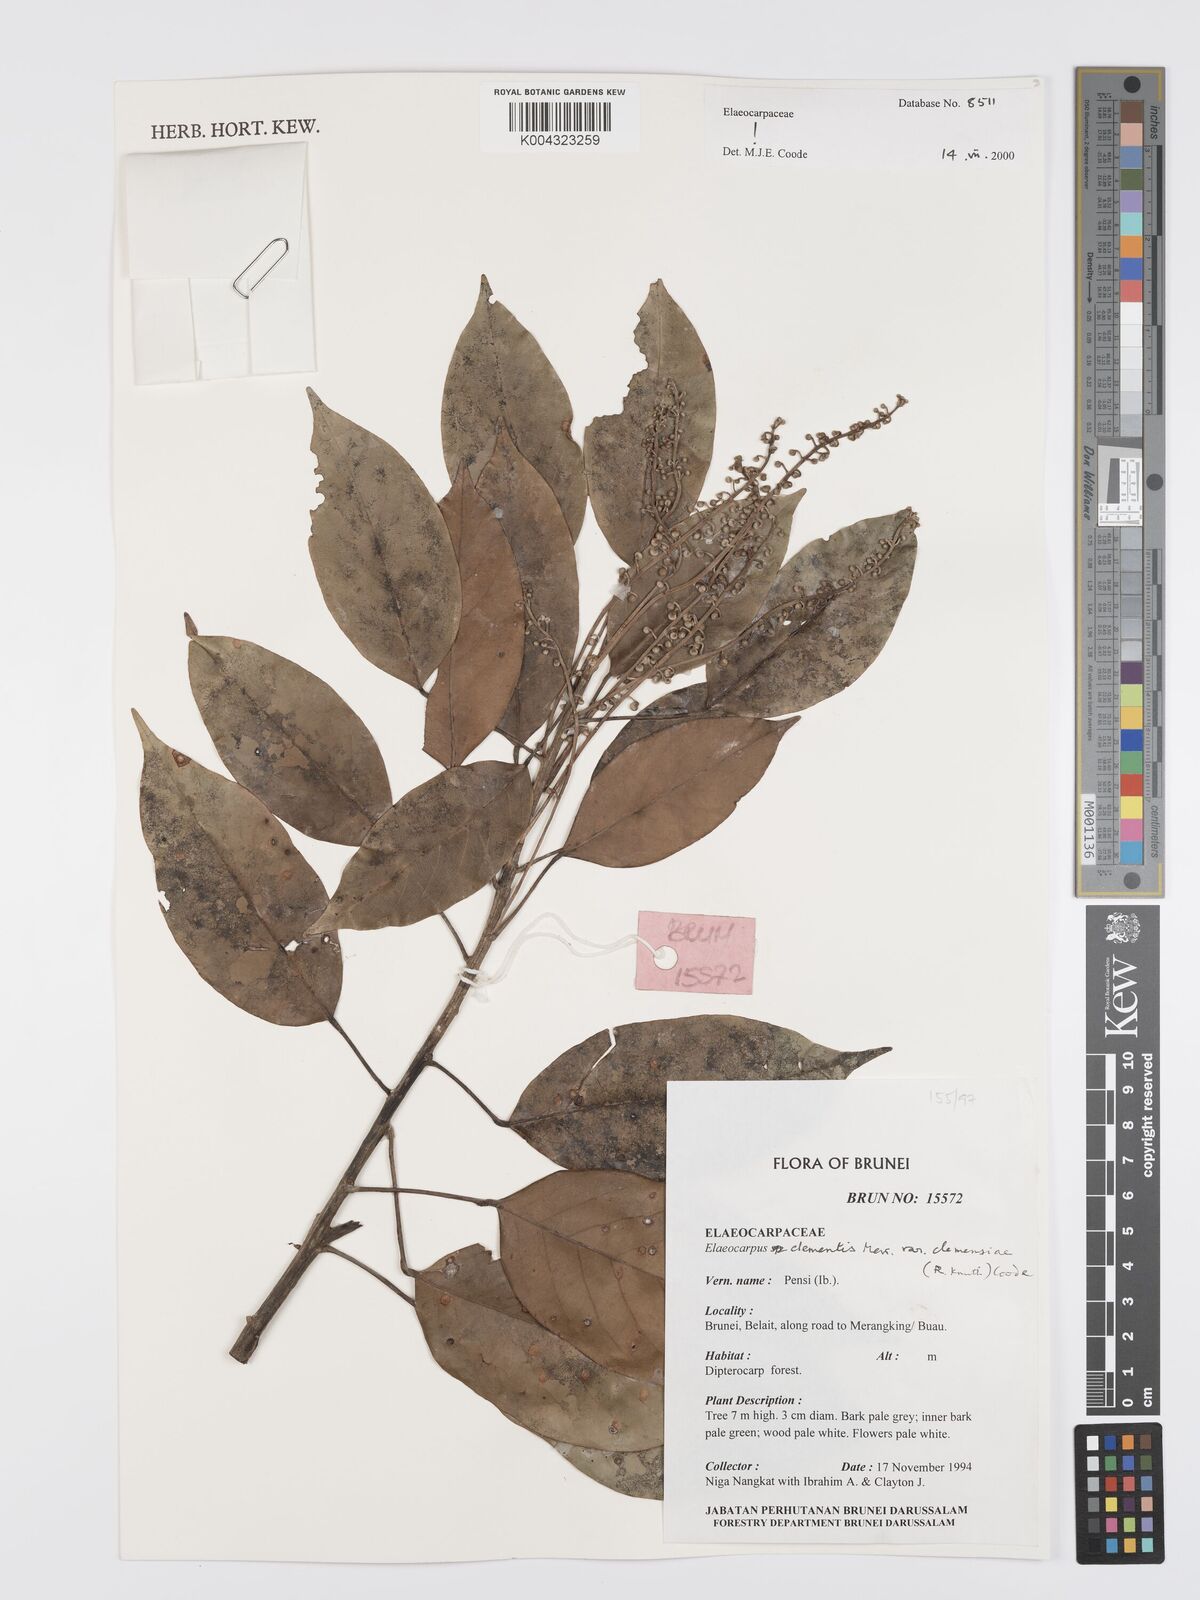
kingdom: Plantae
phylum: Tracheophyta
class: Magnoliopsida
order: Oxalidales
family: Elaeocarpaceae
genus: Elaeocarpus
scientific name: Elaeocarpus clementis
